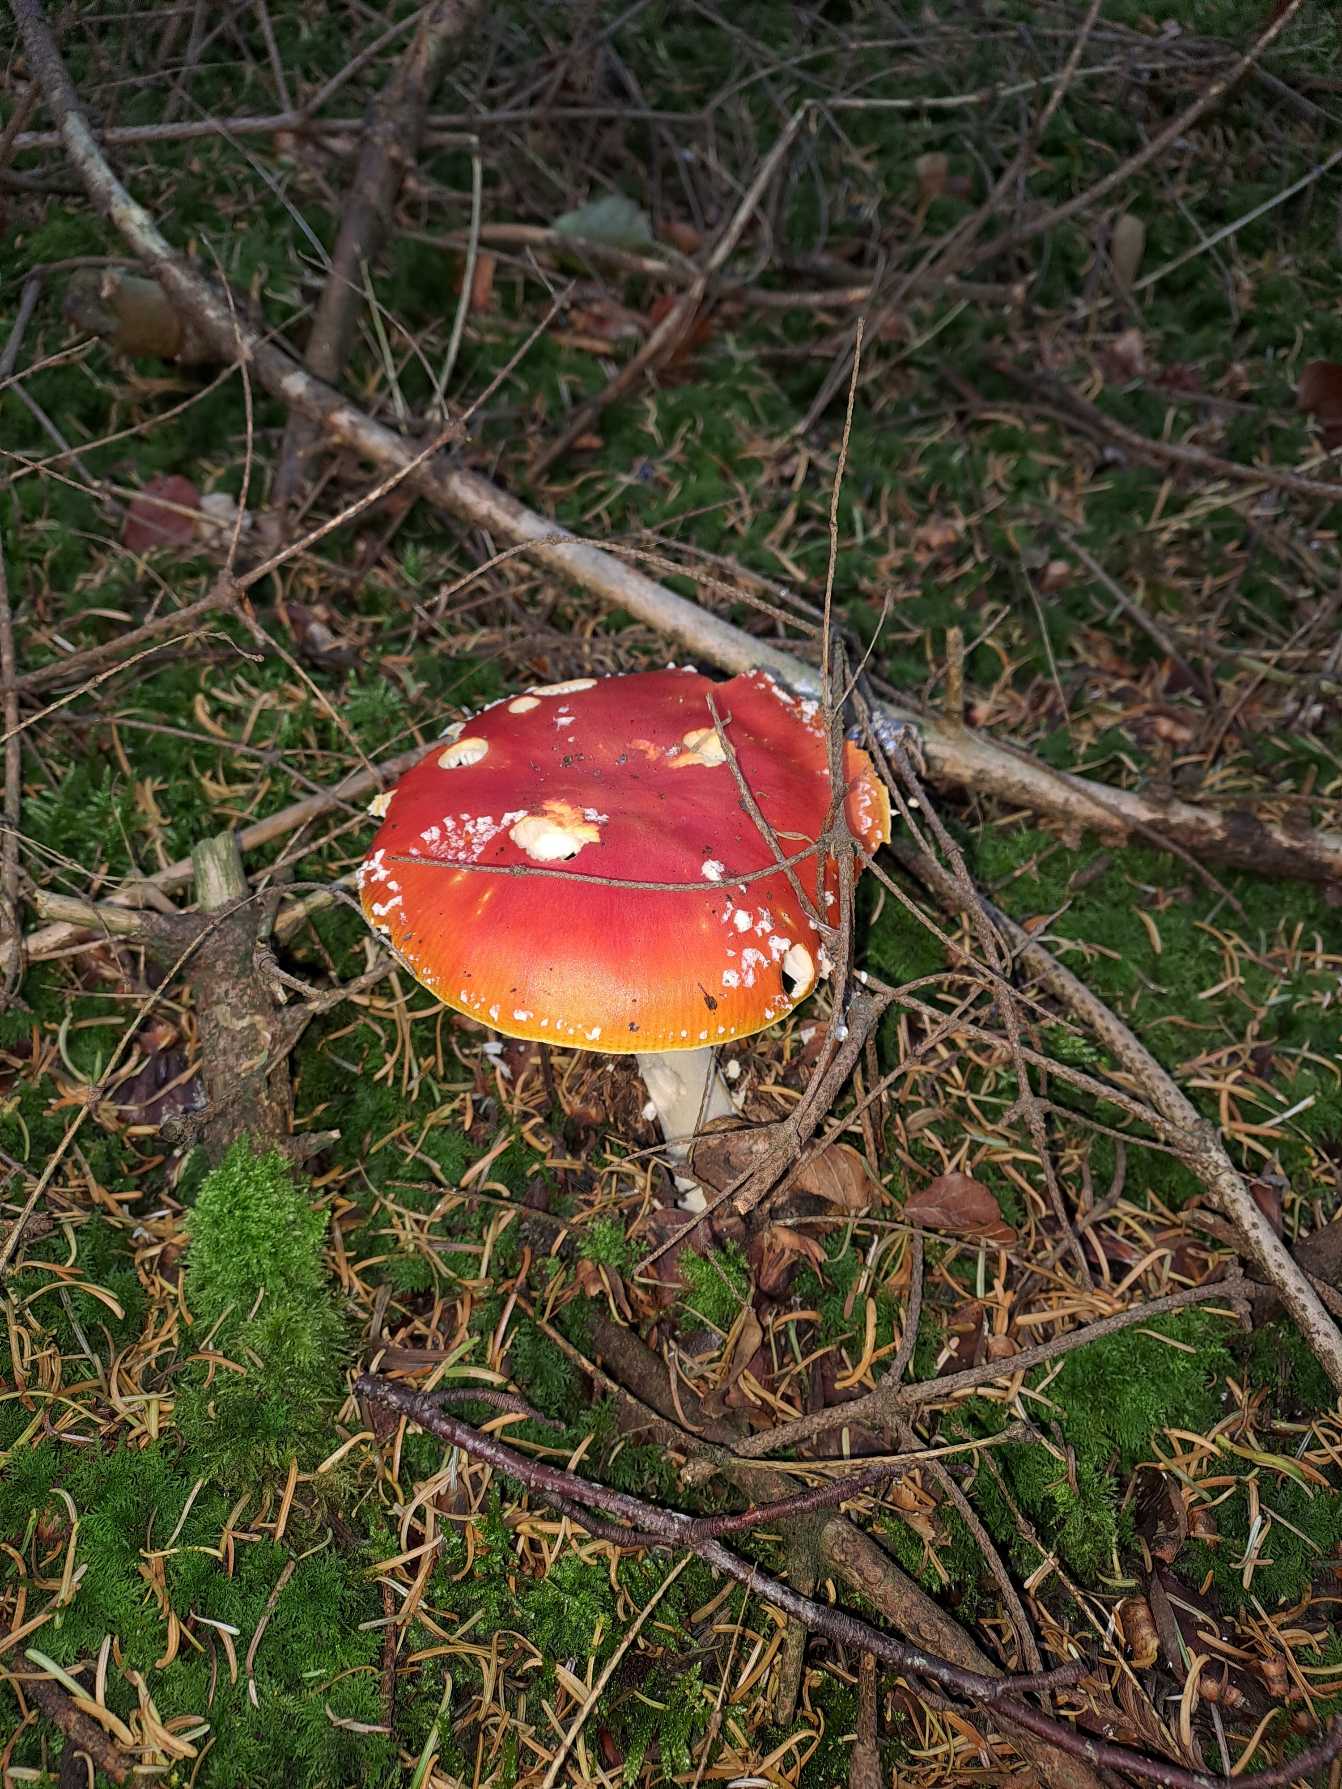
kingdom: Fungi
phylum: Basidiomycota
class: Agaricomycetes
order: Agaricales
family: Amanitaceae
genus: Amanita
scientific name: Amanita muscaria
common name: Rød fluesvamp
